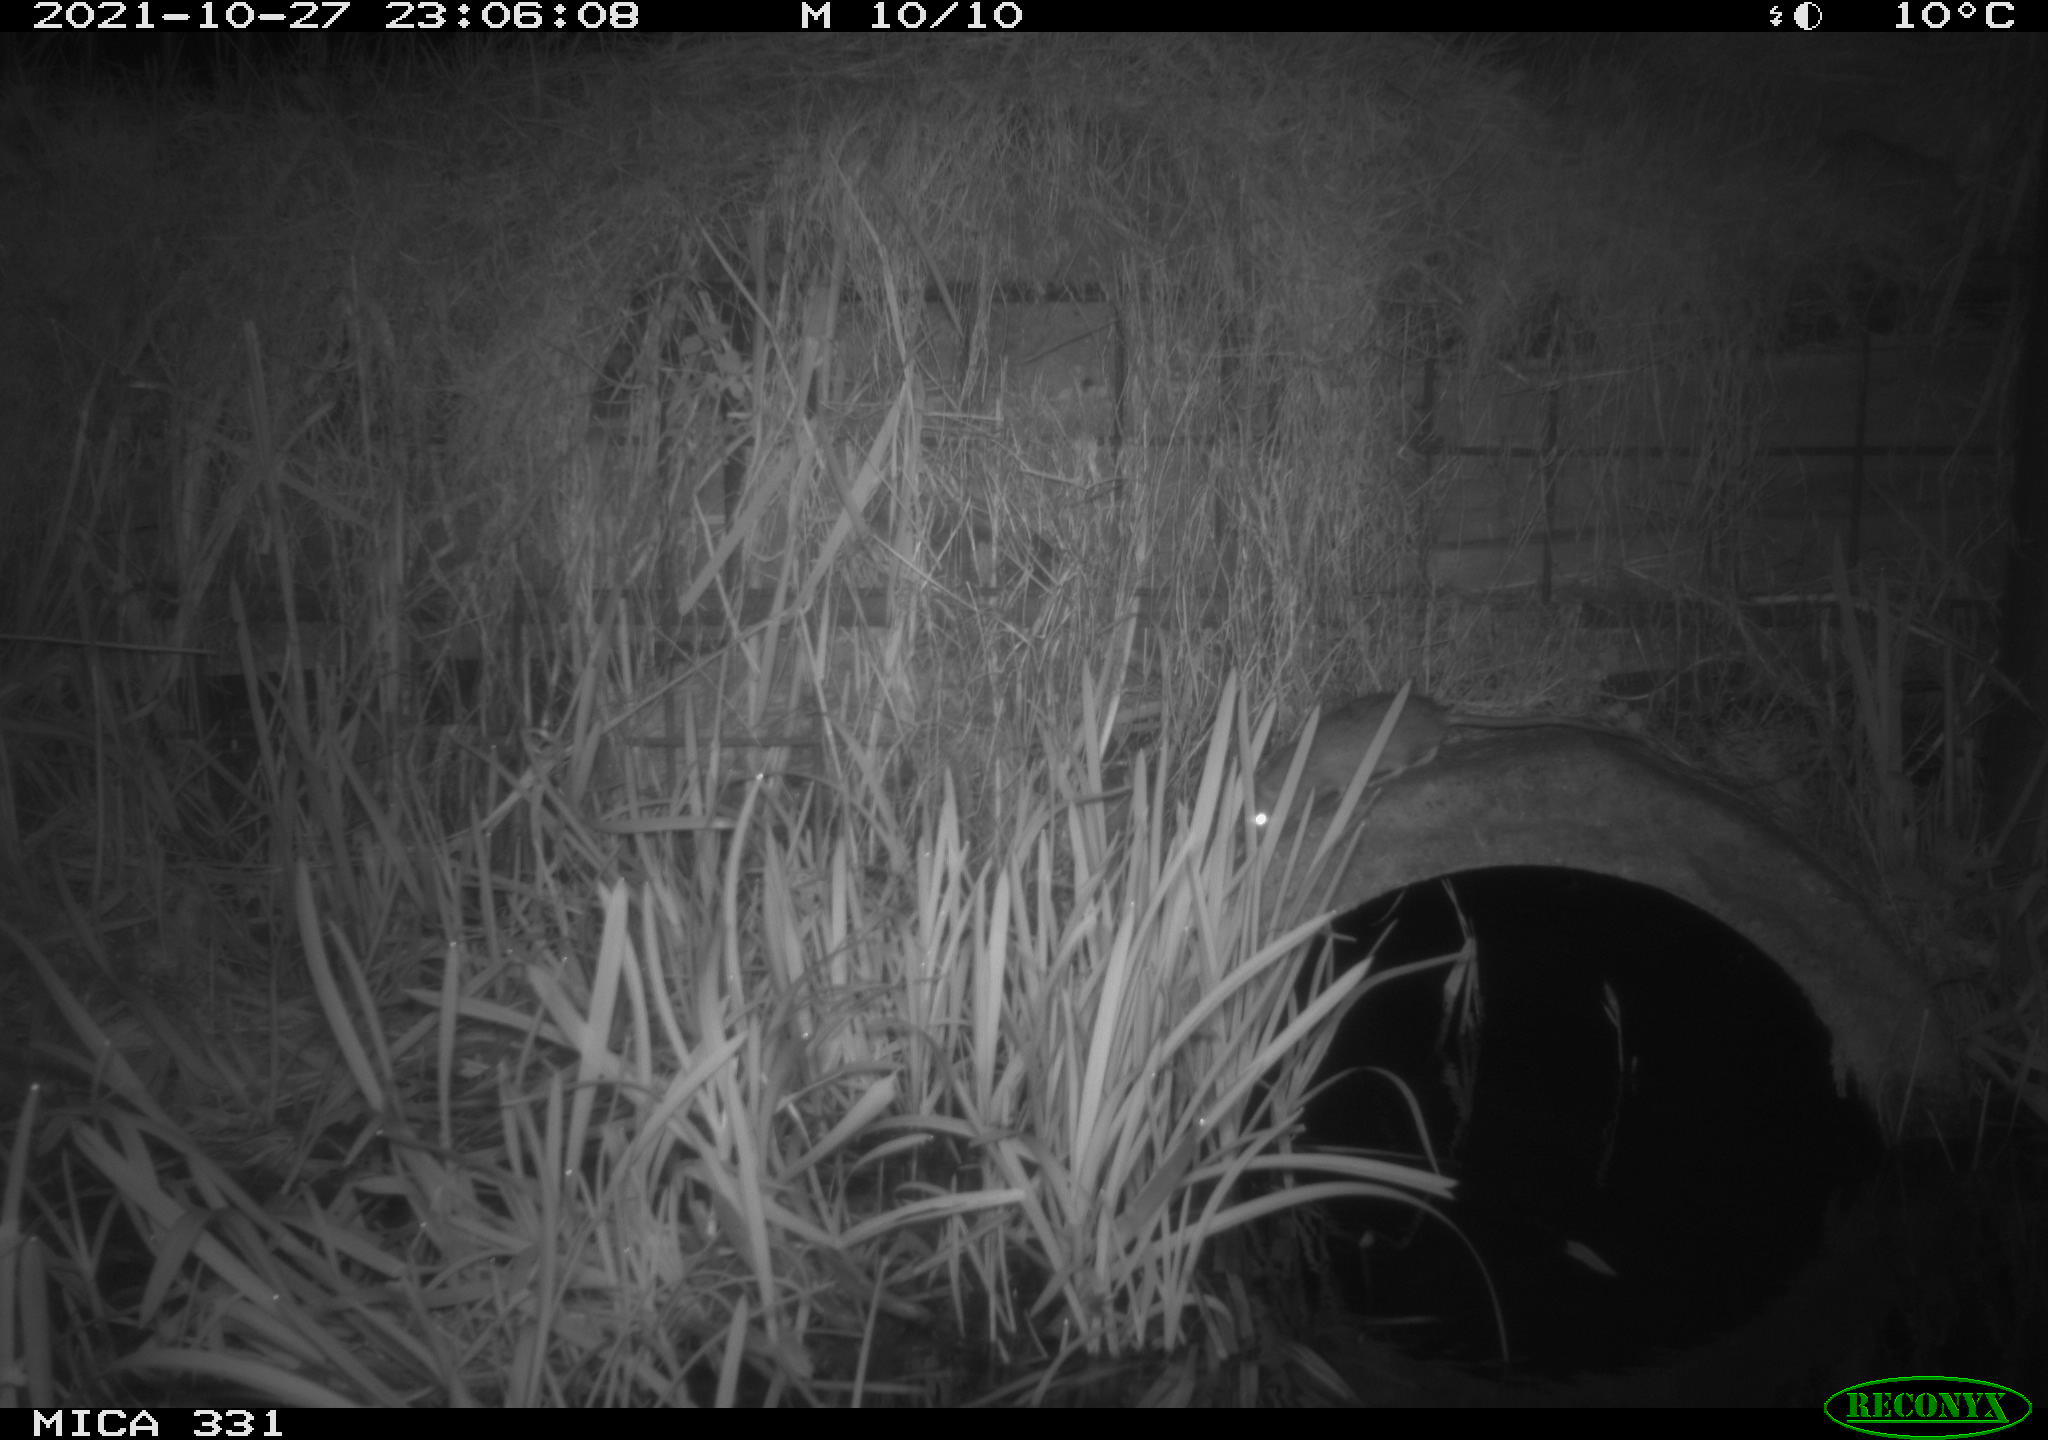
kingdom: Animalia
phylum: Chordata
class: Mammalia
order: Rodentia
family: Muridae
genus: Rattus
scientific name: Rattus norvegicus
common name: Brown rat
